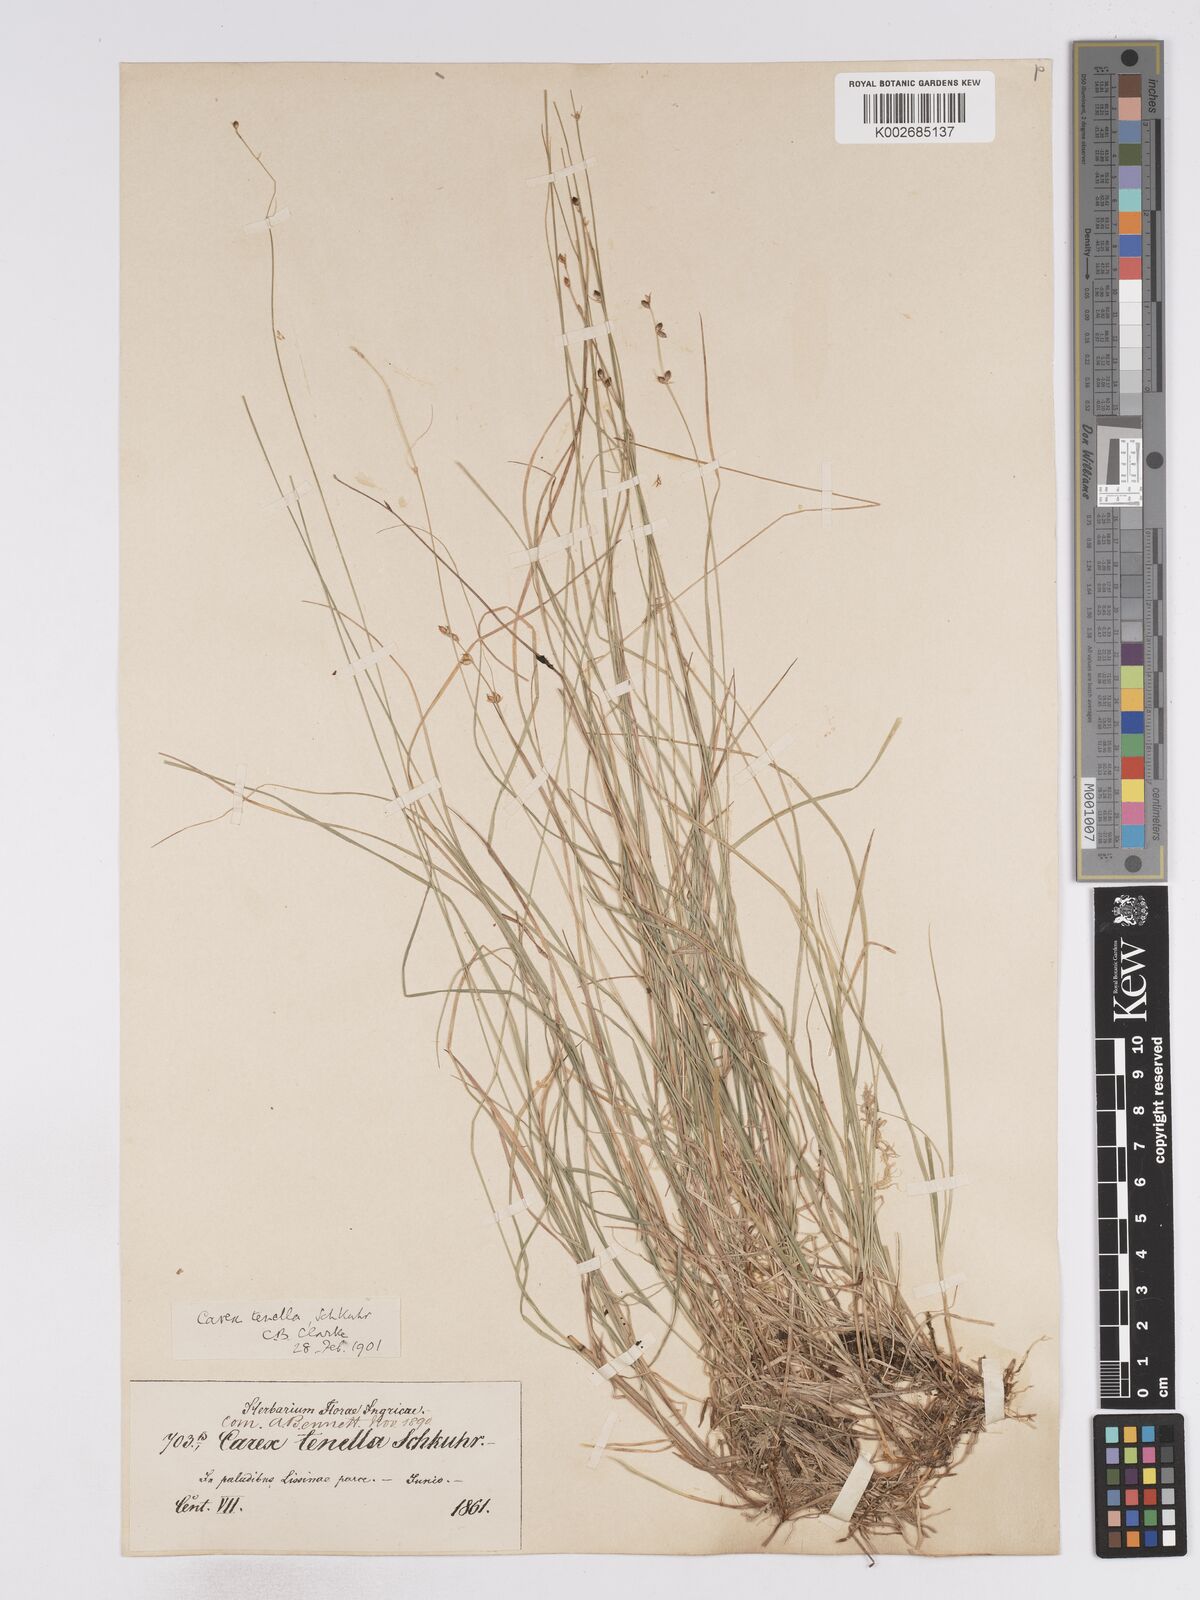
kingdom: Plantae
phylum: Tracheophyta
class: Liliopsida
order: Poales
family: Cyperaceae
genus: Carex
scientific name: Carex disperma
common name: Short-leaved sedge
